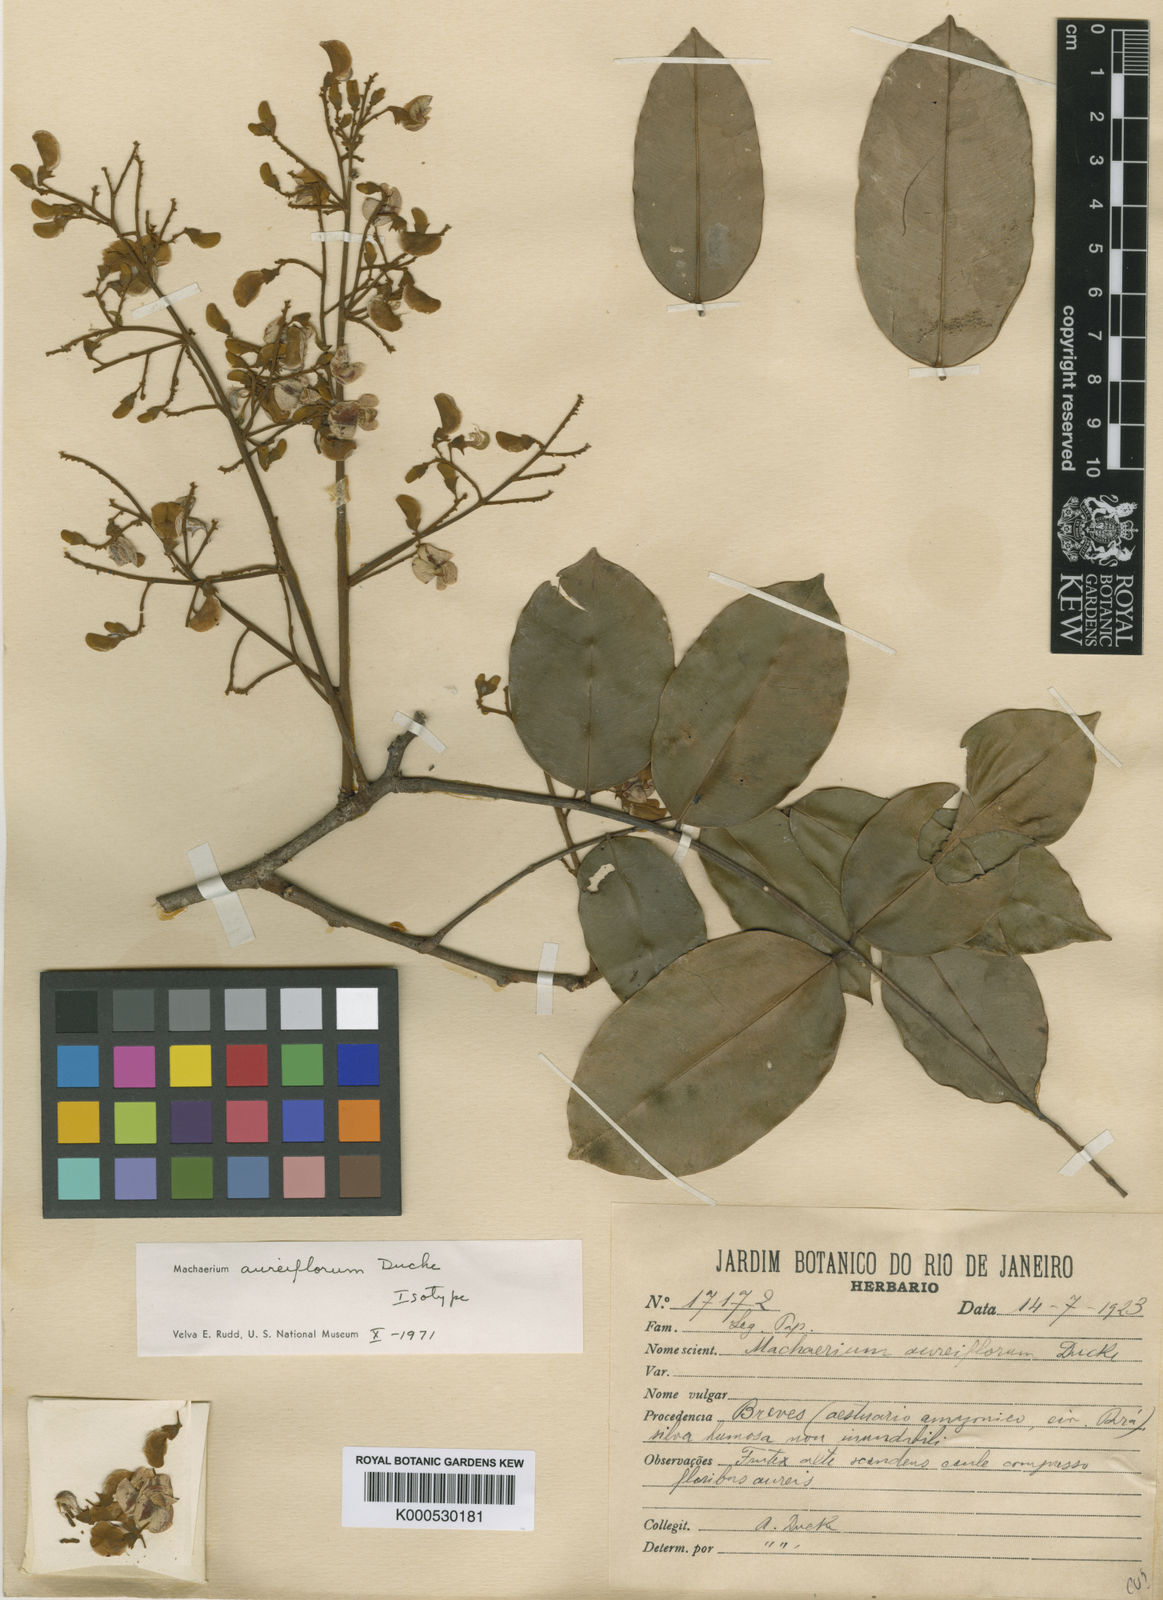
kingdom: Plantae
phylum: Tracheophyta
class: Magnoliopsida
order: Fabales
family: Fabaceae
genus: Machaerium
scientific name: Machaerium aureiflorum
